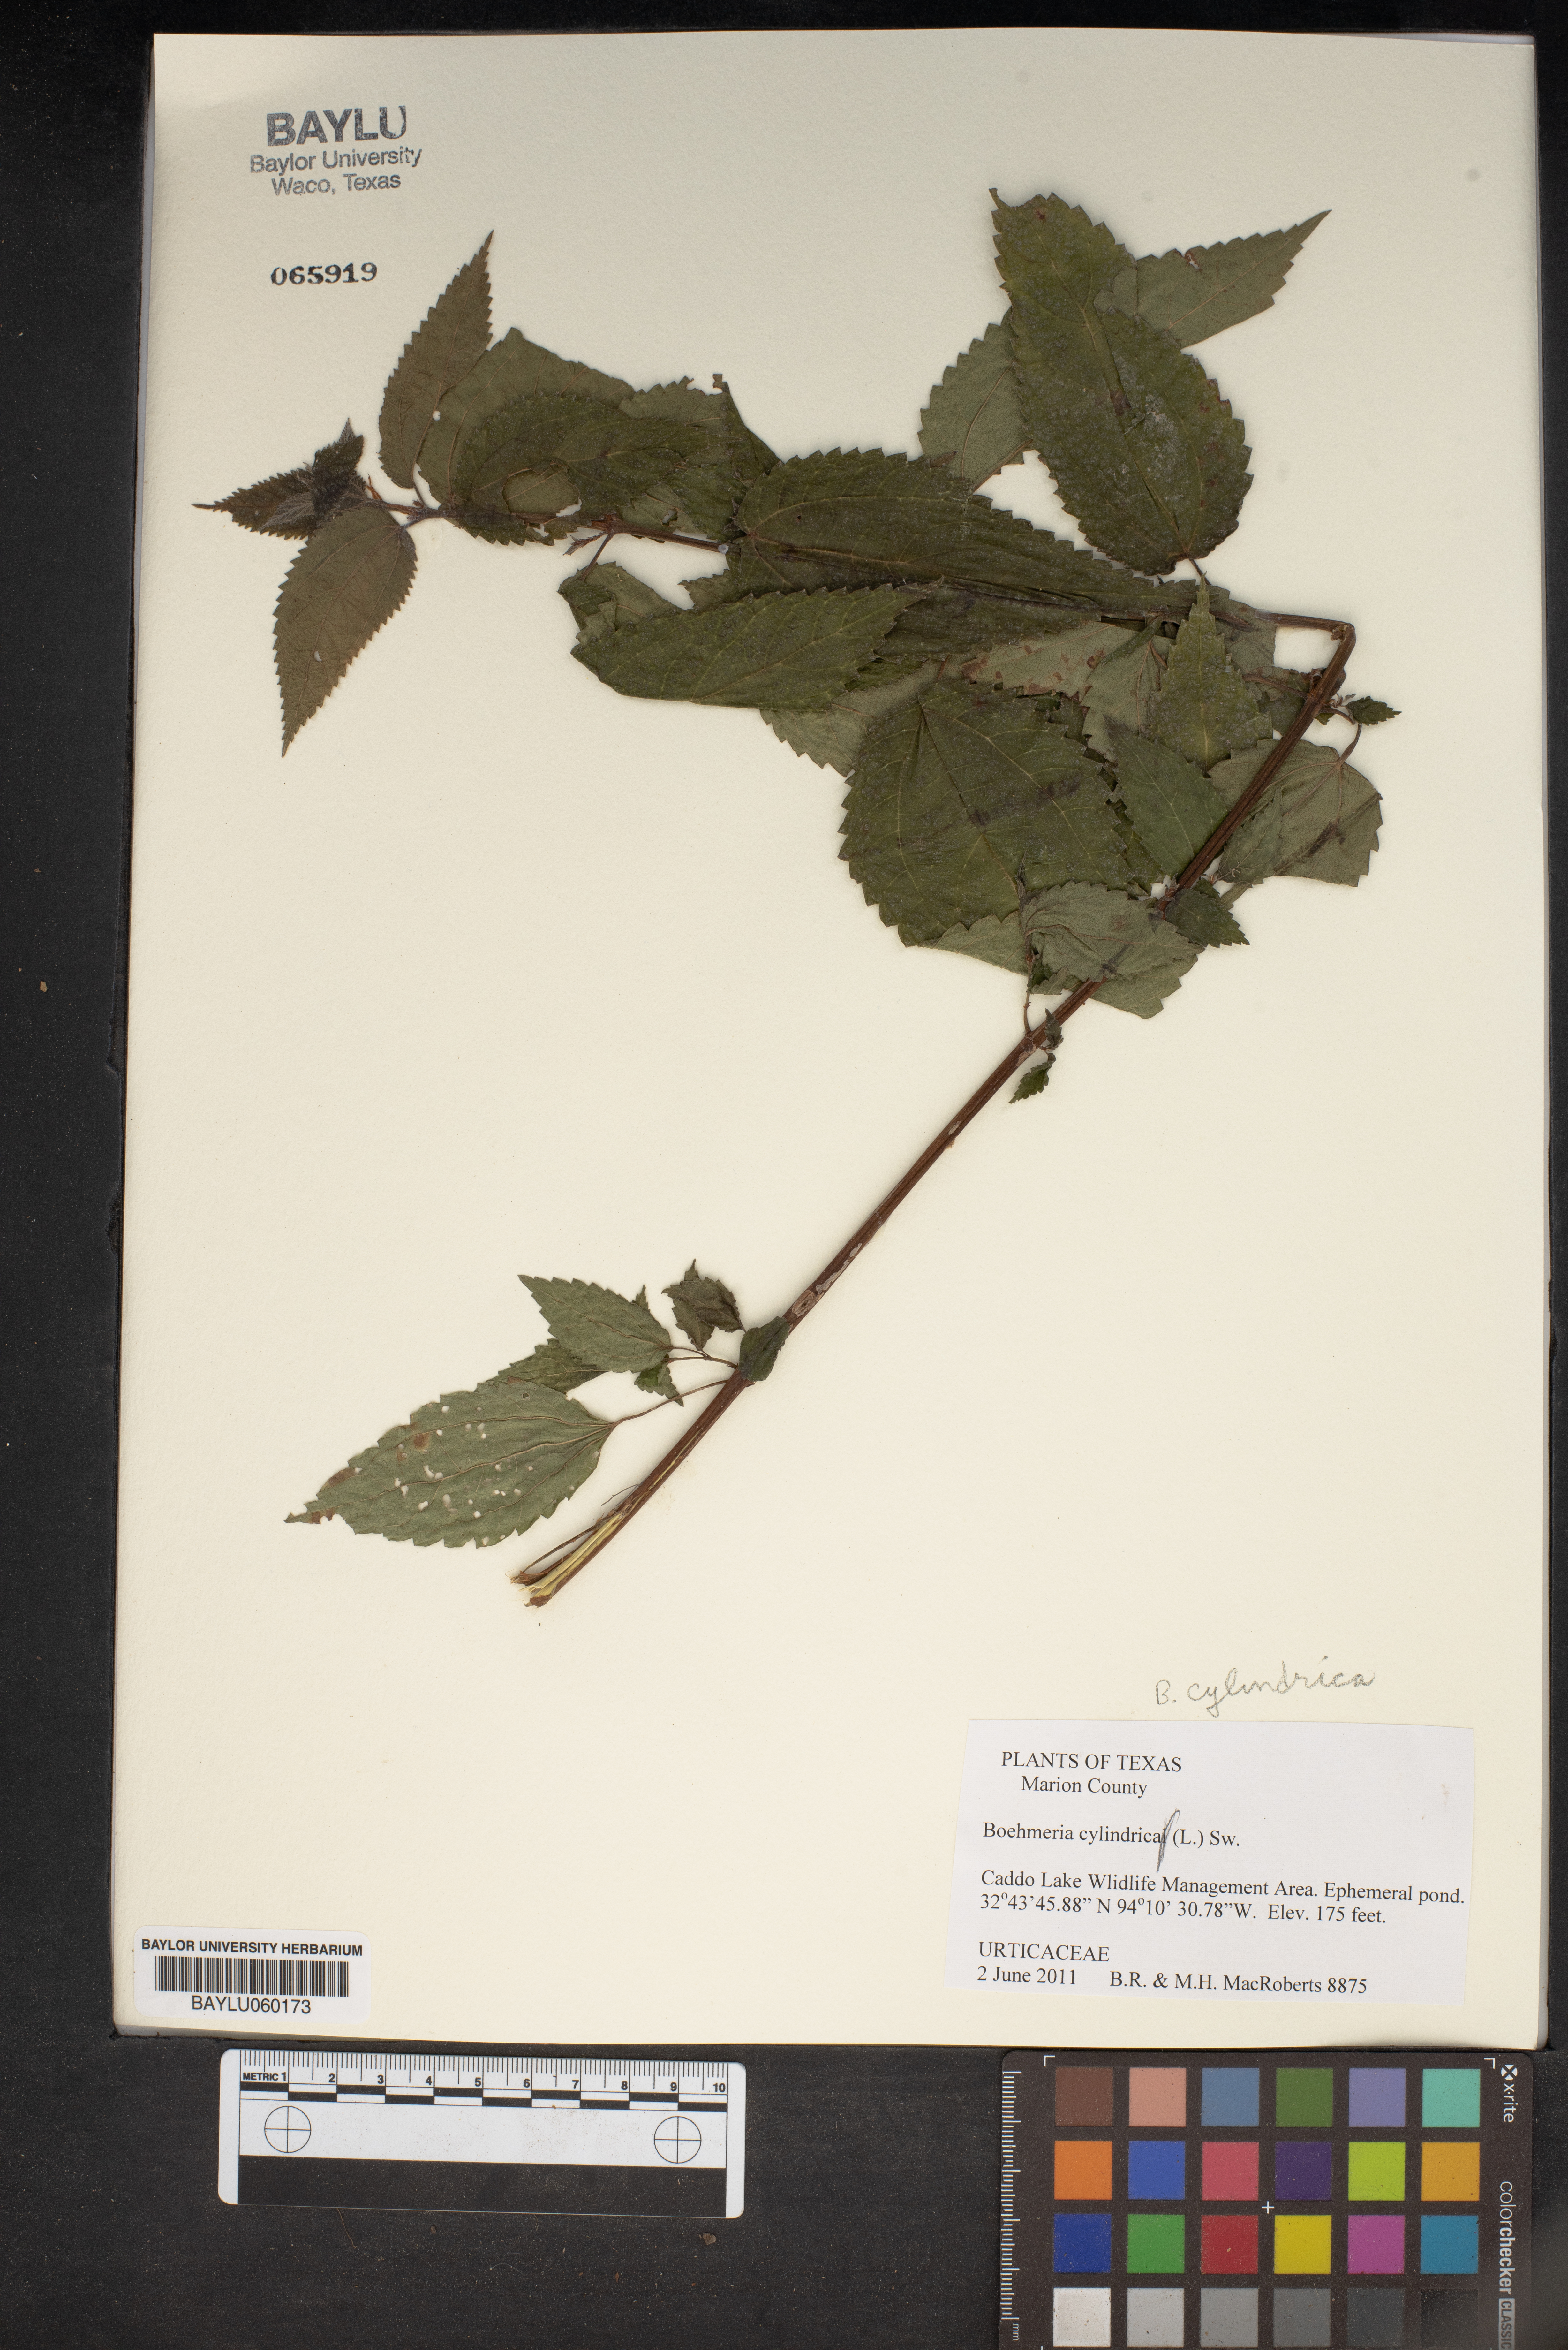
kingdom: Plantae
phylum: Tracheophyta
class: Magnoliopsida
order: Rosales
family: Urticaceae
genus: Boehmeria
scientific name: Boehmeria cylindrica
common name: Bog-hemp
